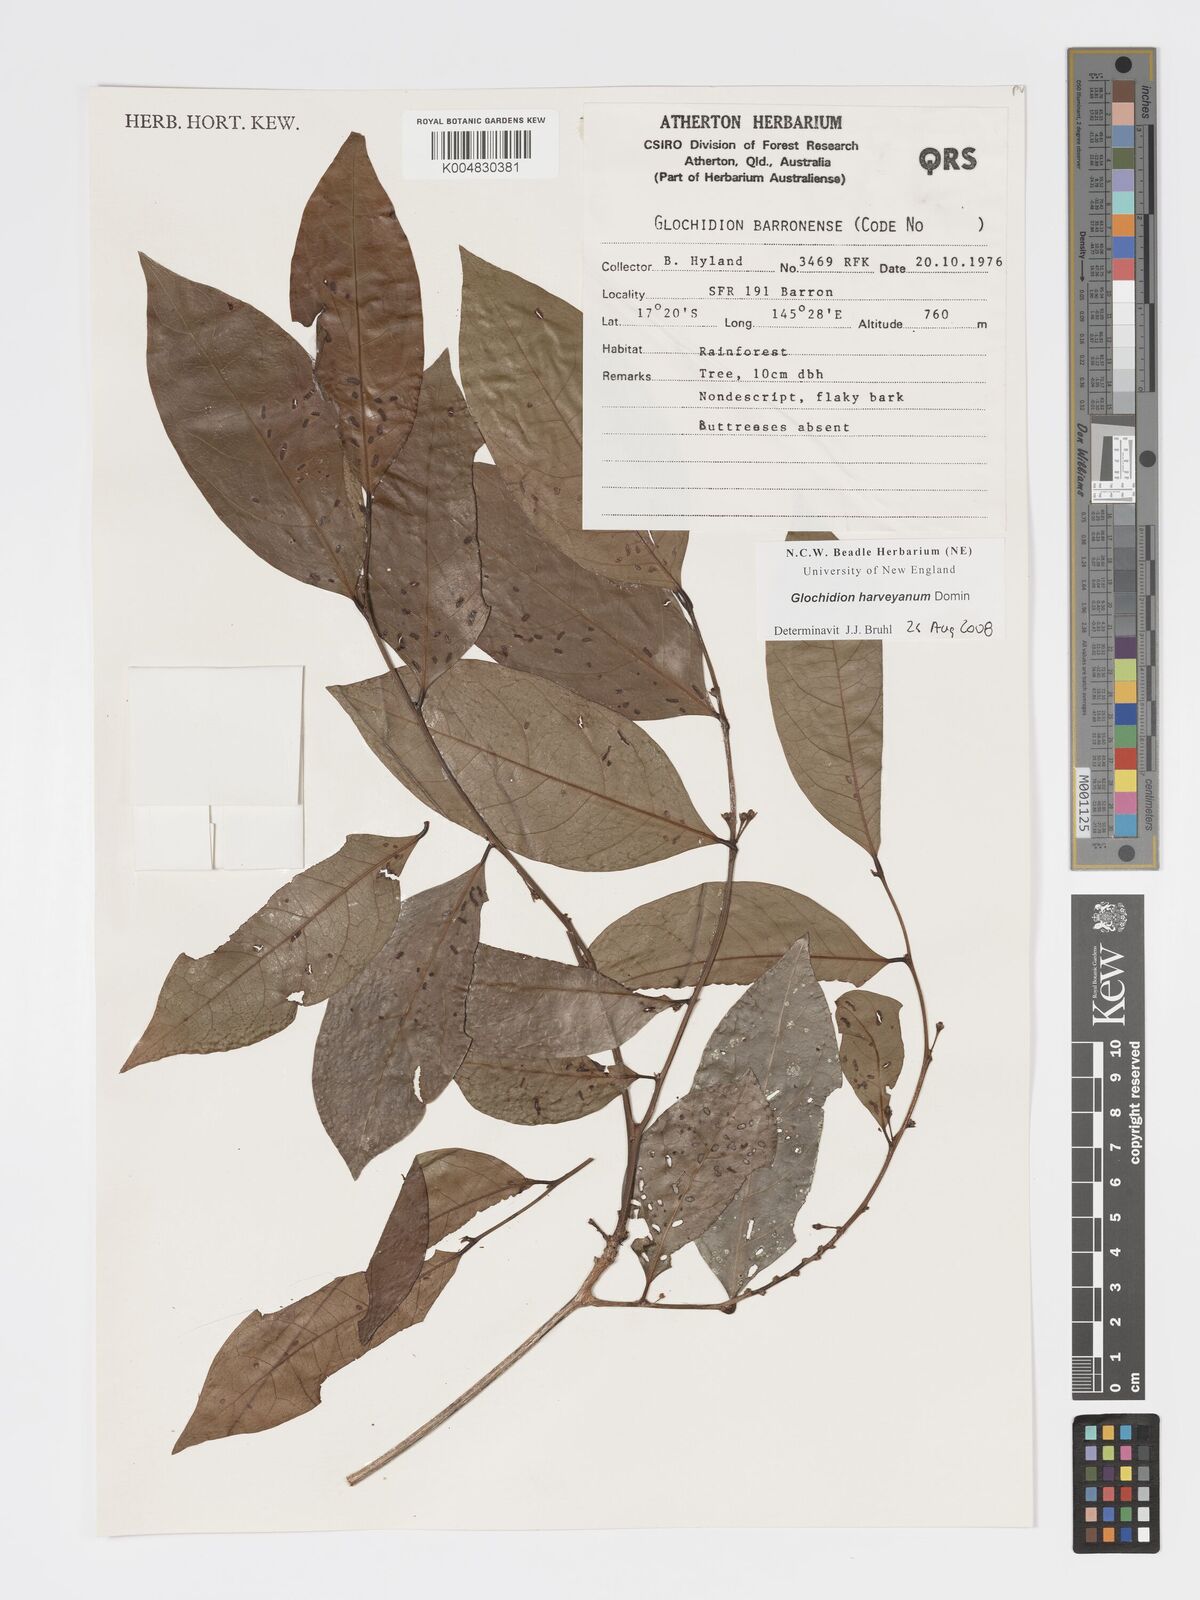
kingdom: Plantae
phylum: Tracheophyta
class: Magnoliopsida
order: Malpighiales
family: Phyllanthaceae
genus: Glochidion
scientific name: Glochidion harveyanum
